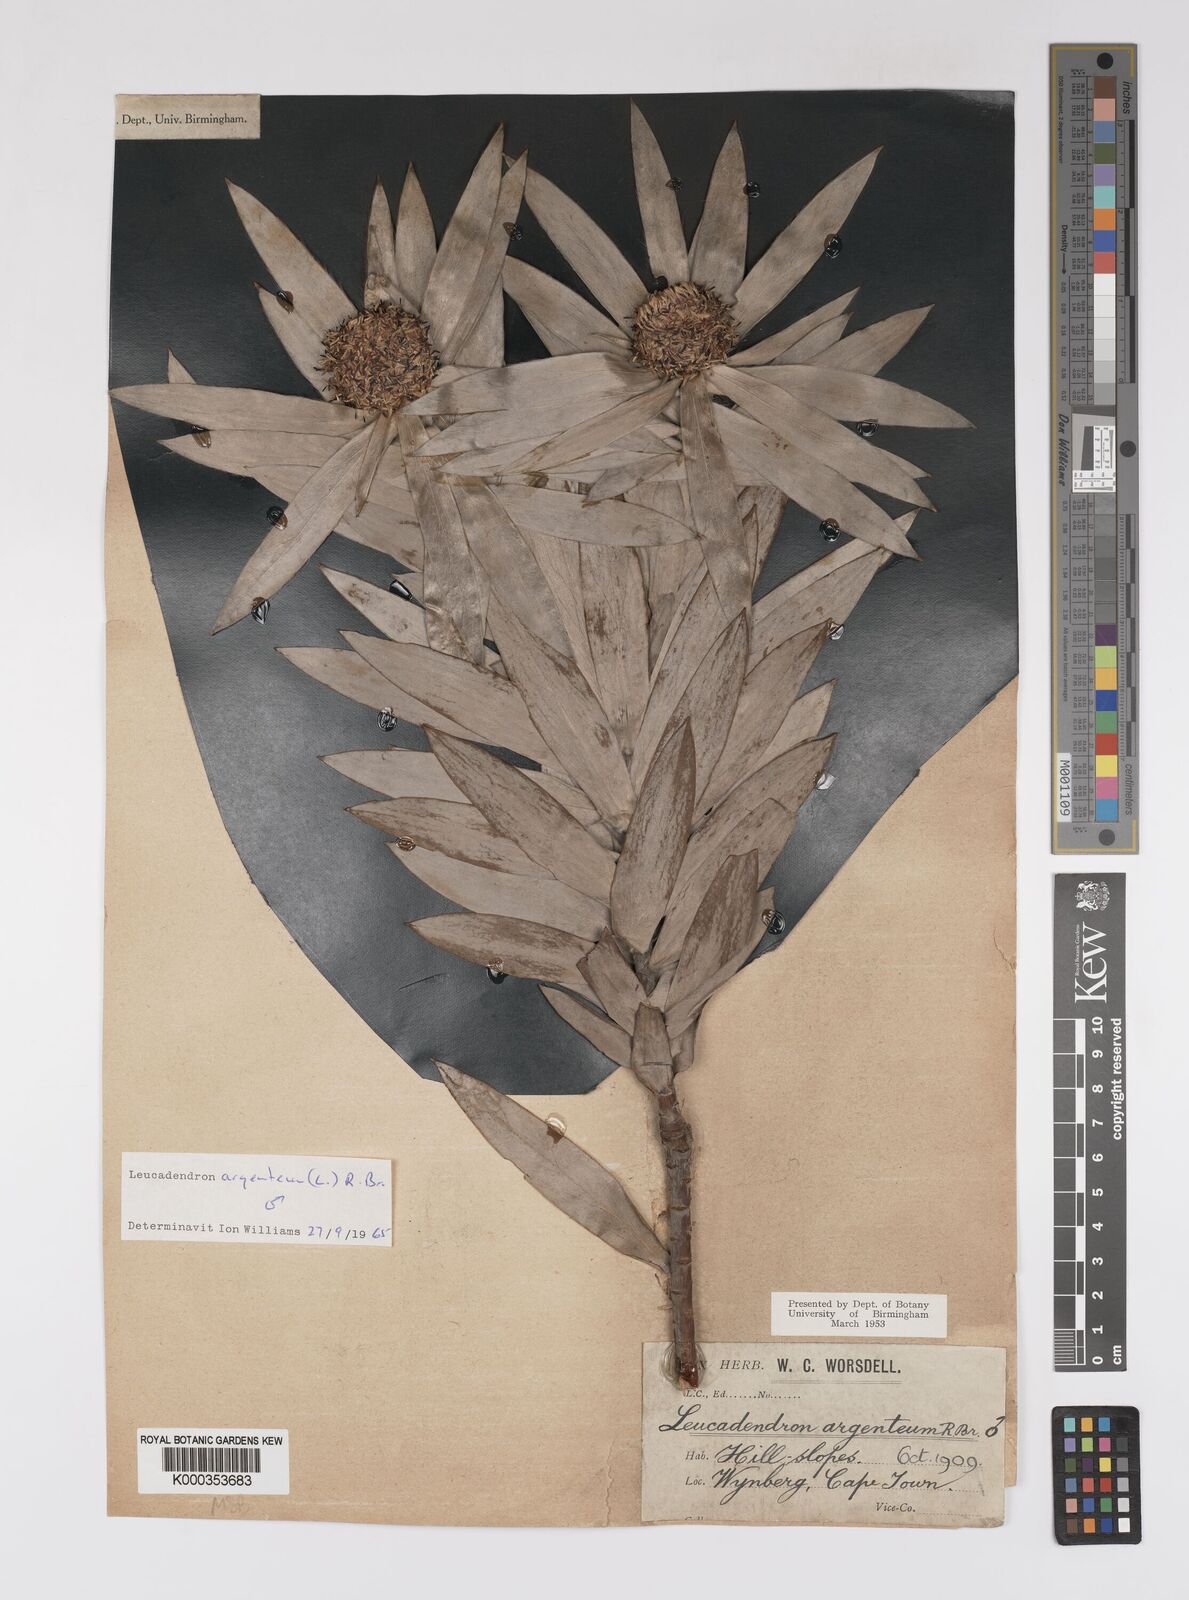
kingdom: Plantae
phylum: Tracheophyta
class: Magnoliopsida
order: Proteales
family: Proteaceae
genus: Leucadendron
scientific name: Leucadendron argenteum
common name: Cape silver tree
